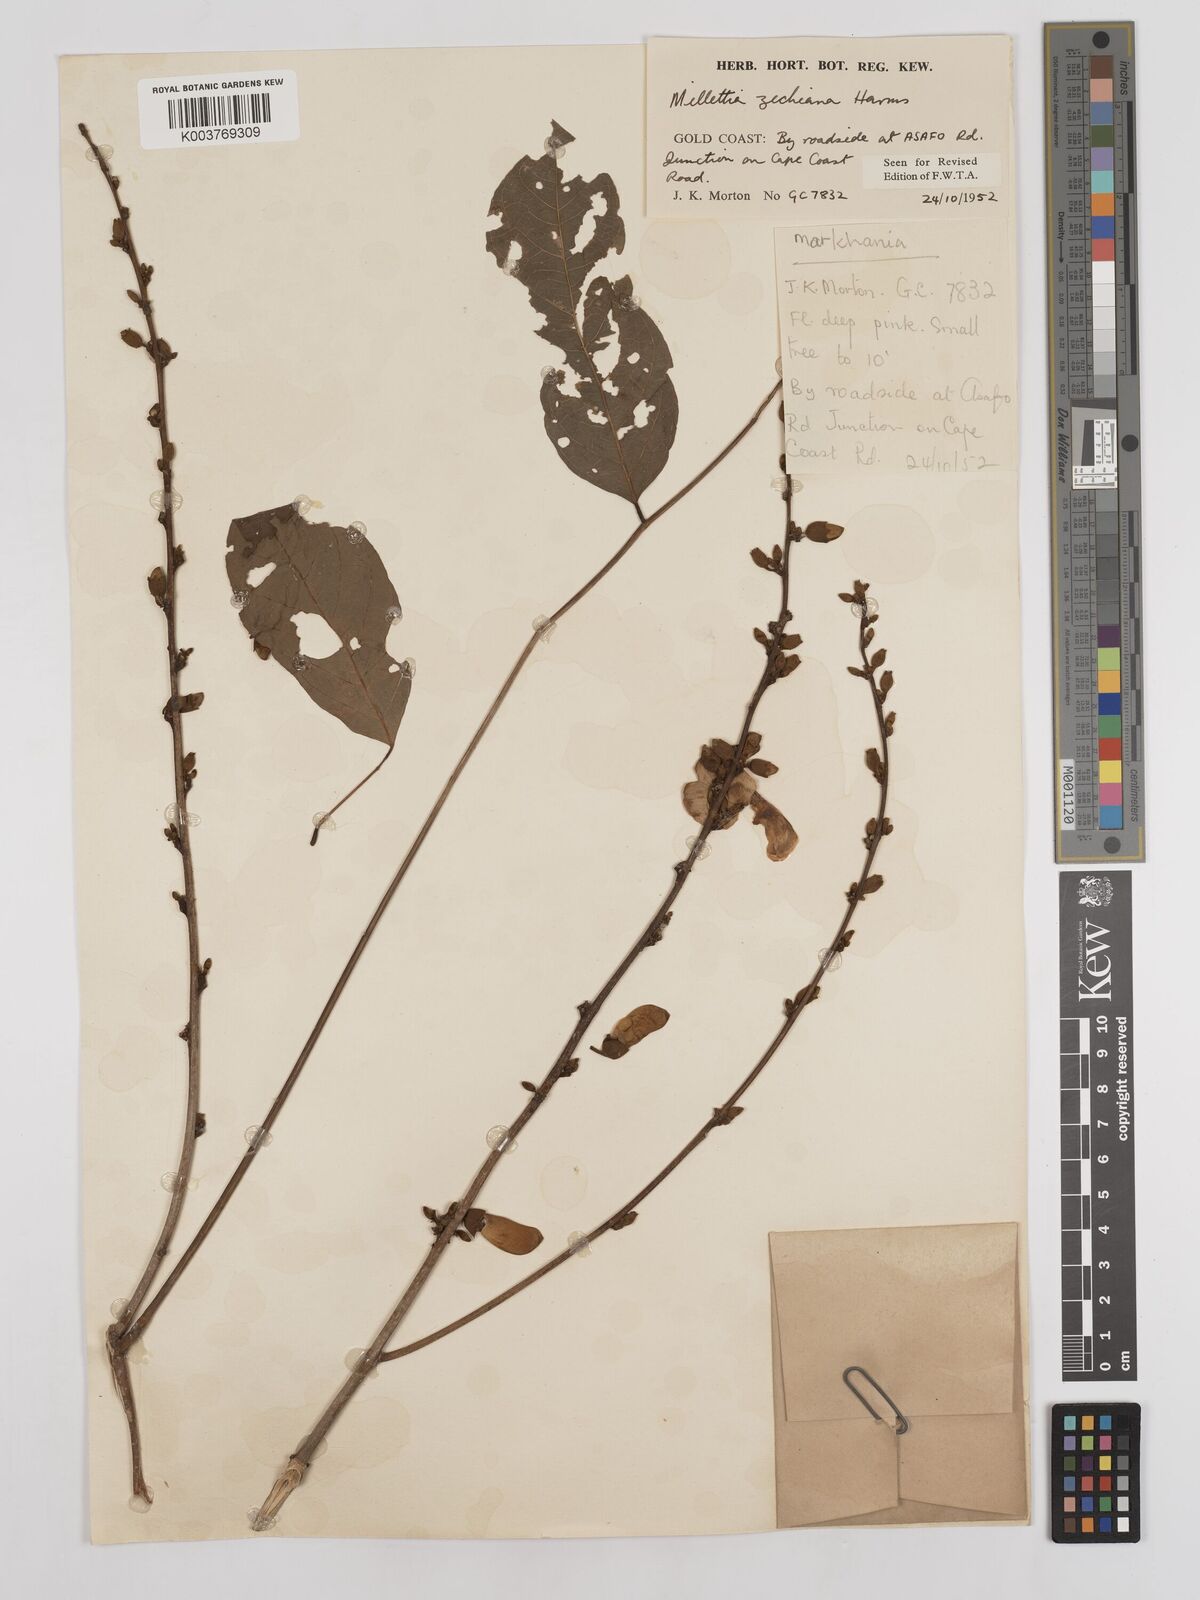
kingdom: Plantae
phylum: Tracheophyta
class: Magnoliopsida
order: Fabales
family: Fabaceae
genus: Millettia
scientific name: Millettia zechiana
